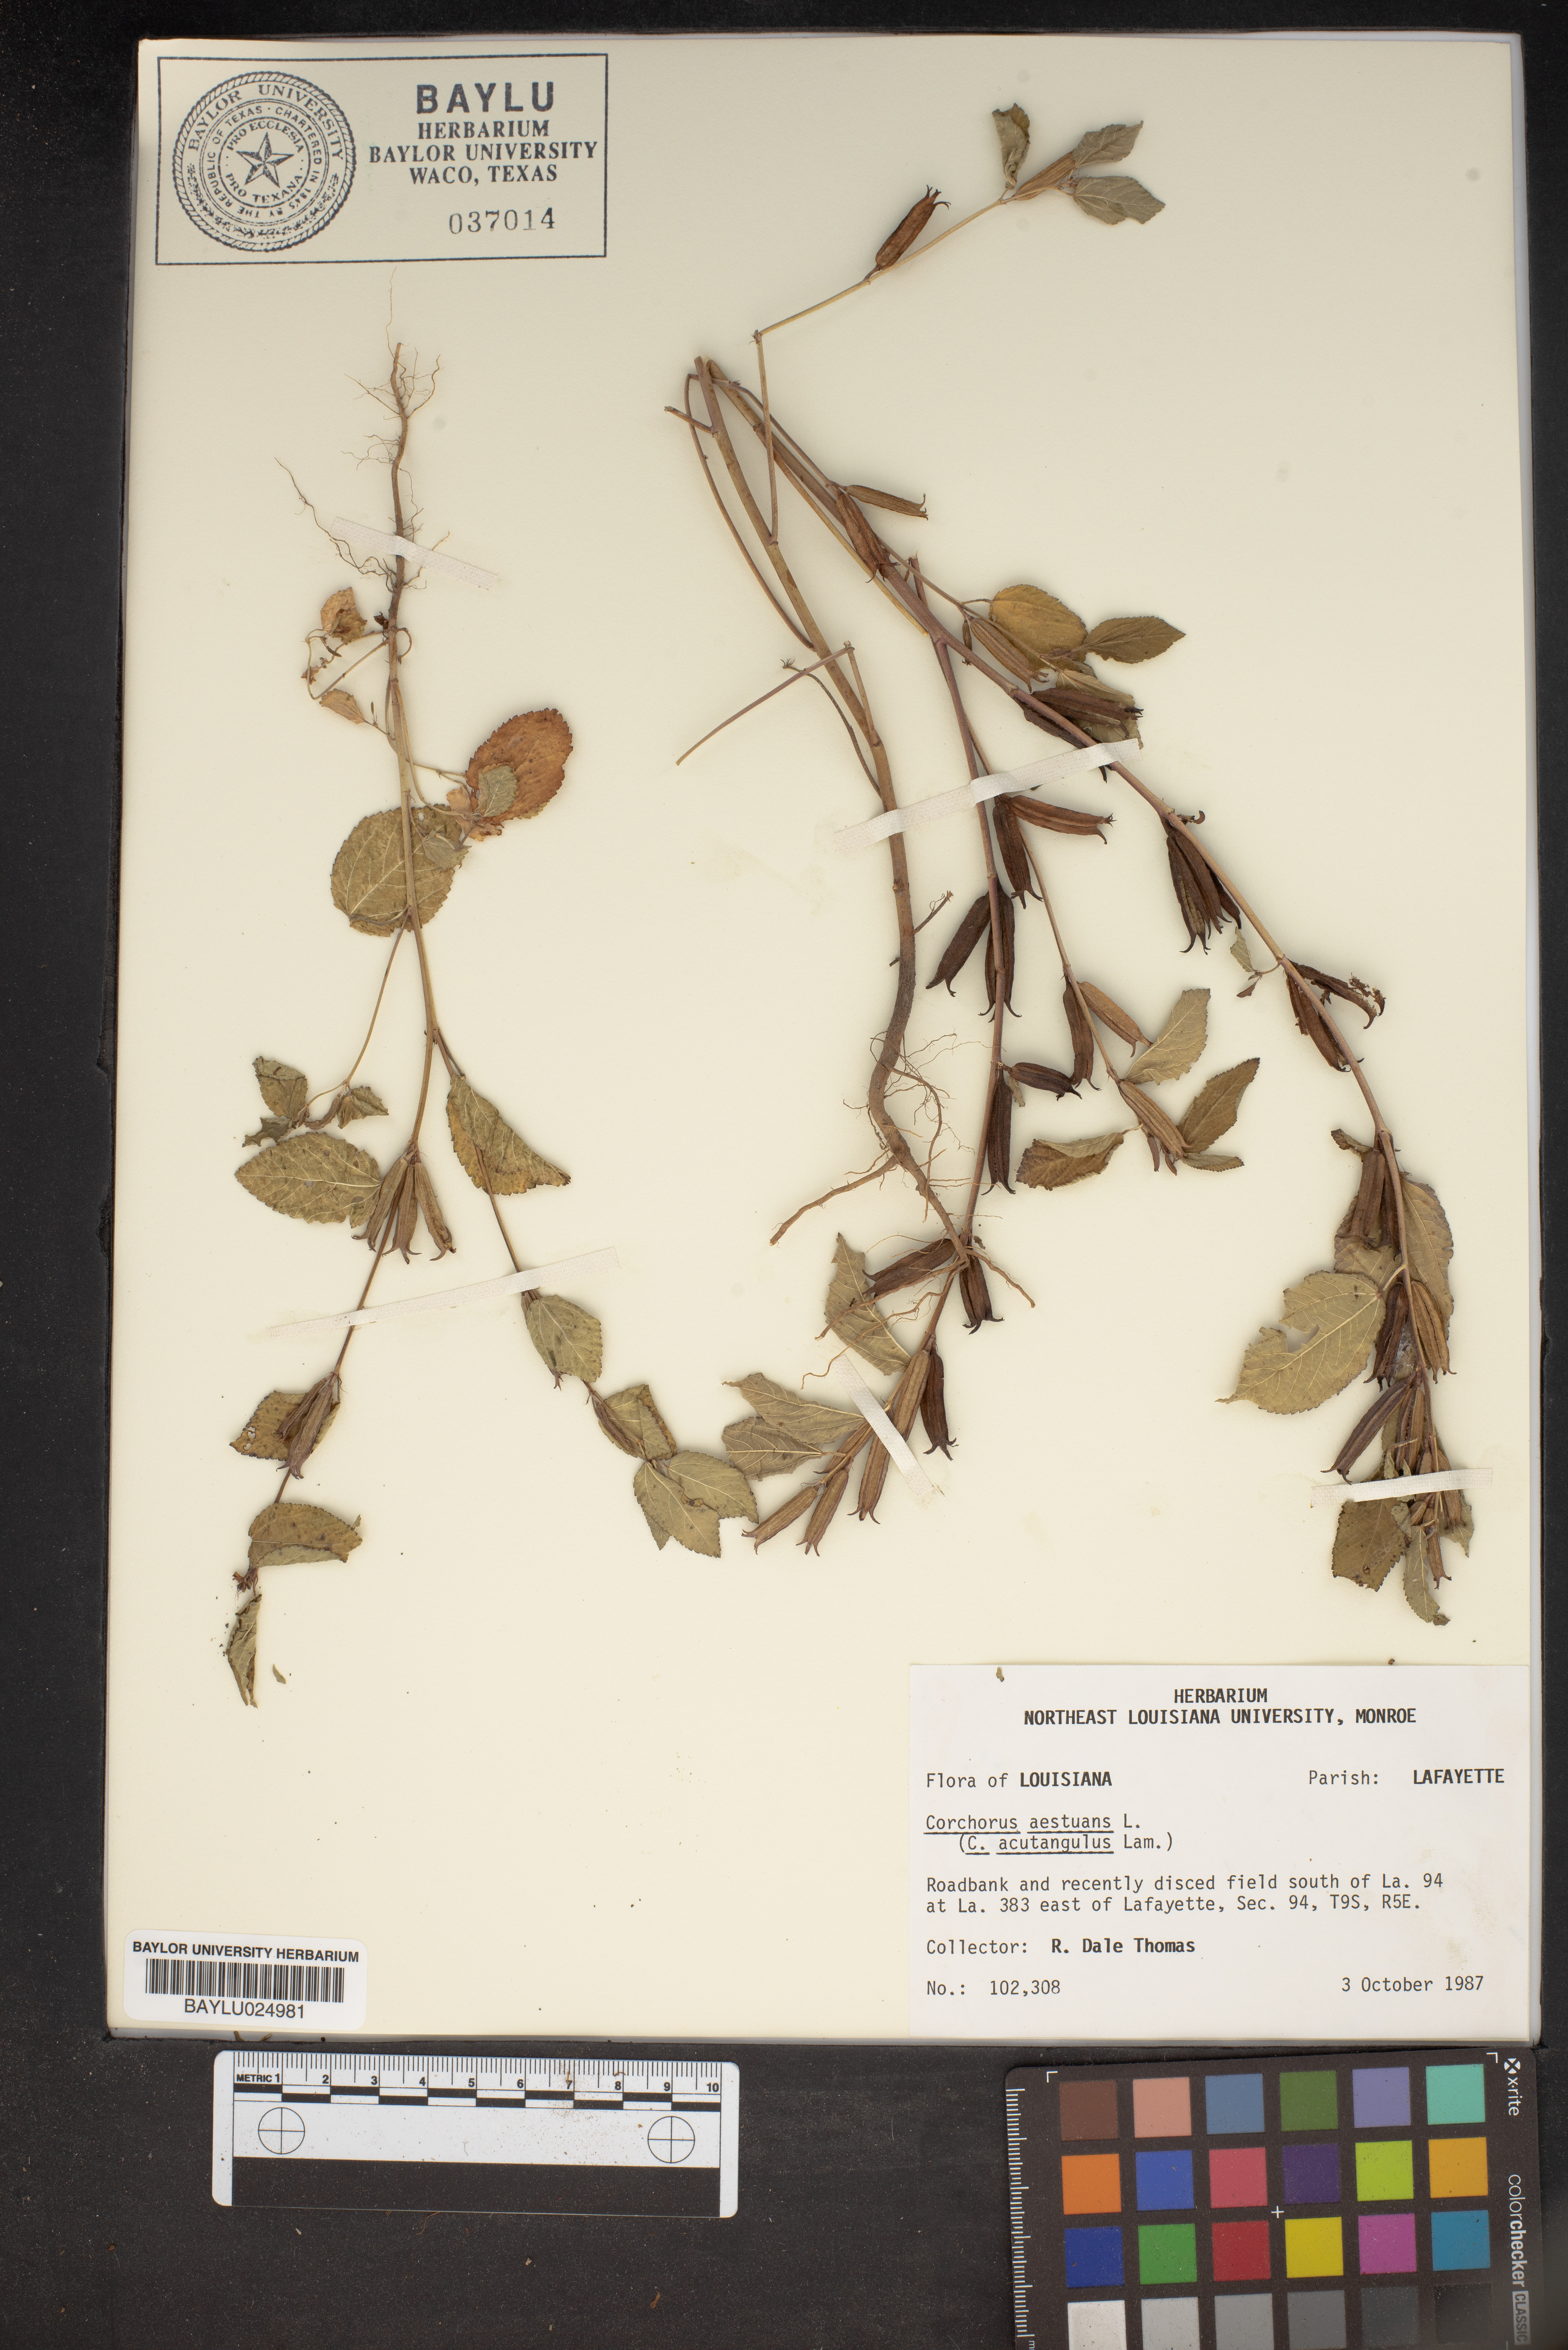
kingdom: Plantae
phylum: Tracheophyta
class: Magnoliopsida
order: Malvales
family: Malvaceae
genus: Corchorus
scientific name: Corchorus aestuans
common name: Jute
